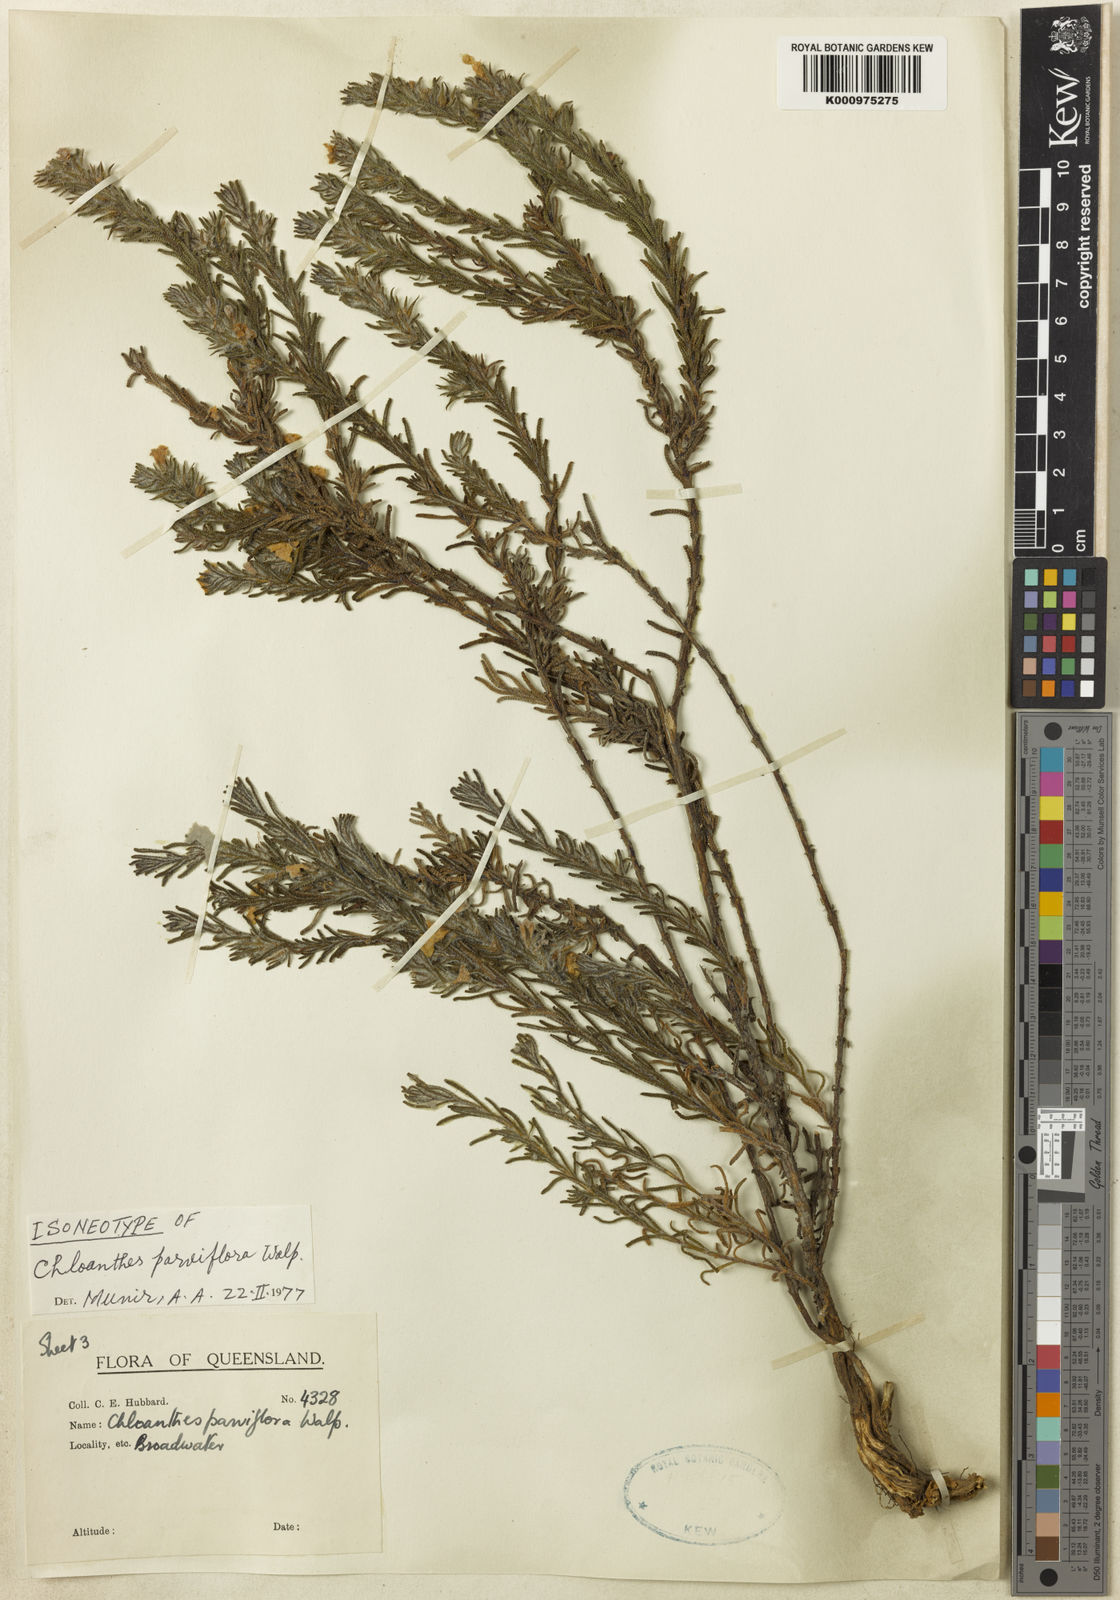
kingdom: Plantae
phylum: Tracheophyta
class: Magnoliopsida
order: Lamiales
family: Lamiaceae
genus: Chloanthes
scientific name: Chloanthes parviflora
